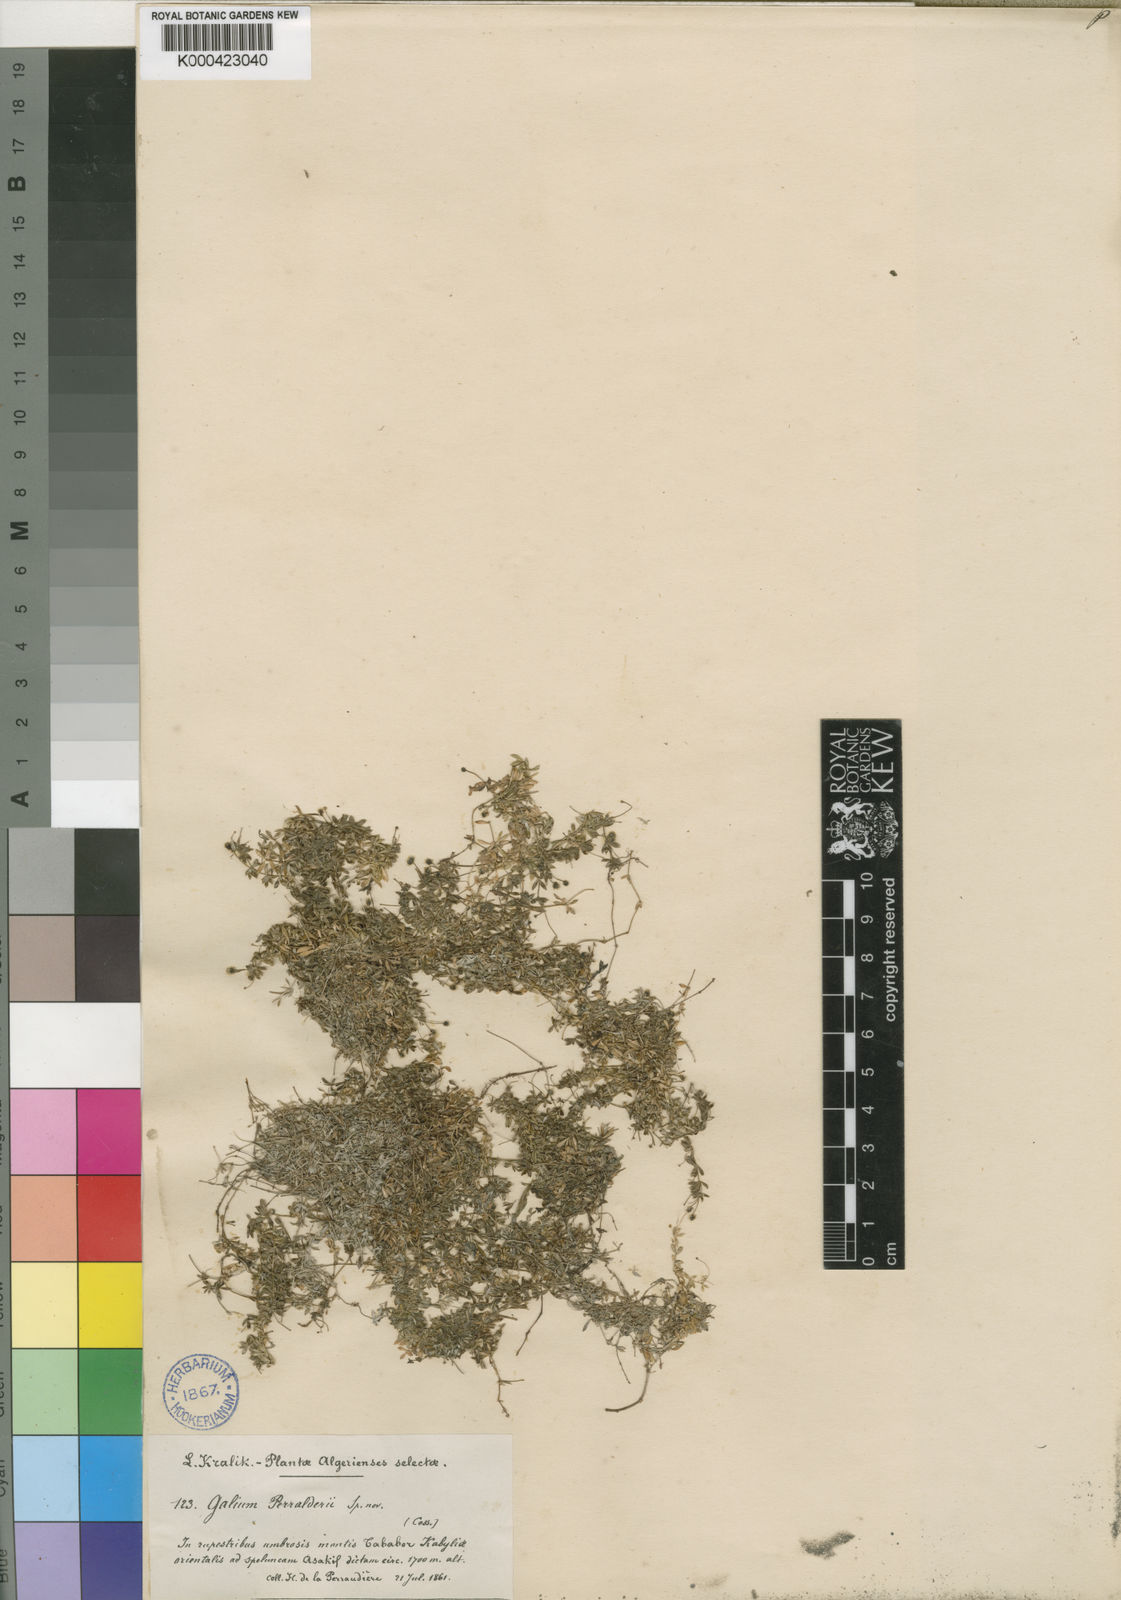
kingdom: Plantae
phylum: Tracheophyta
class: Magnoliopsida
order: Gentianales
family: Rubiaceae
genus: Galium
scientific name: Galium perralderii
